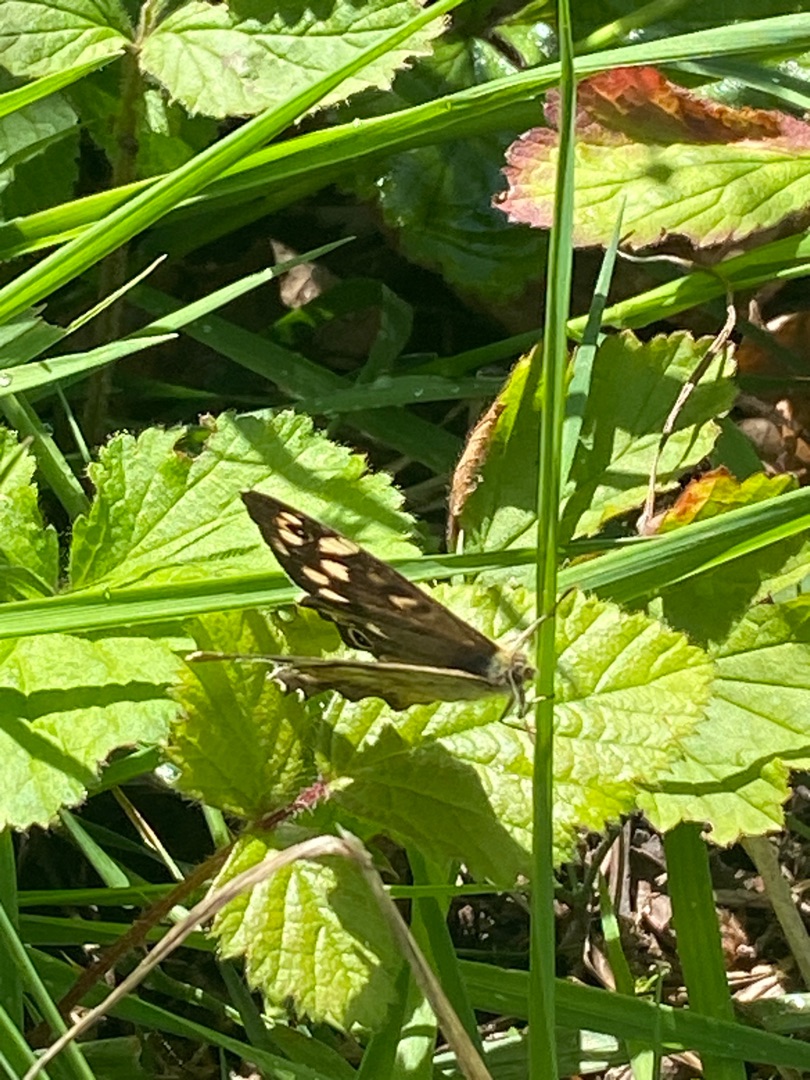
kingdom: Animalia
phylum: Arthropoda
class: Insecta
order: Lepidoptera
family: Nymphalidae
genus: Pararge
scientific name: Pararge aegeria
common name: Skovrandøje
